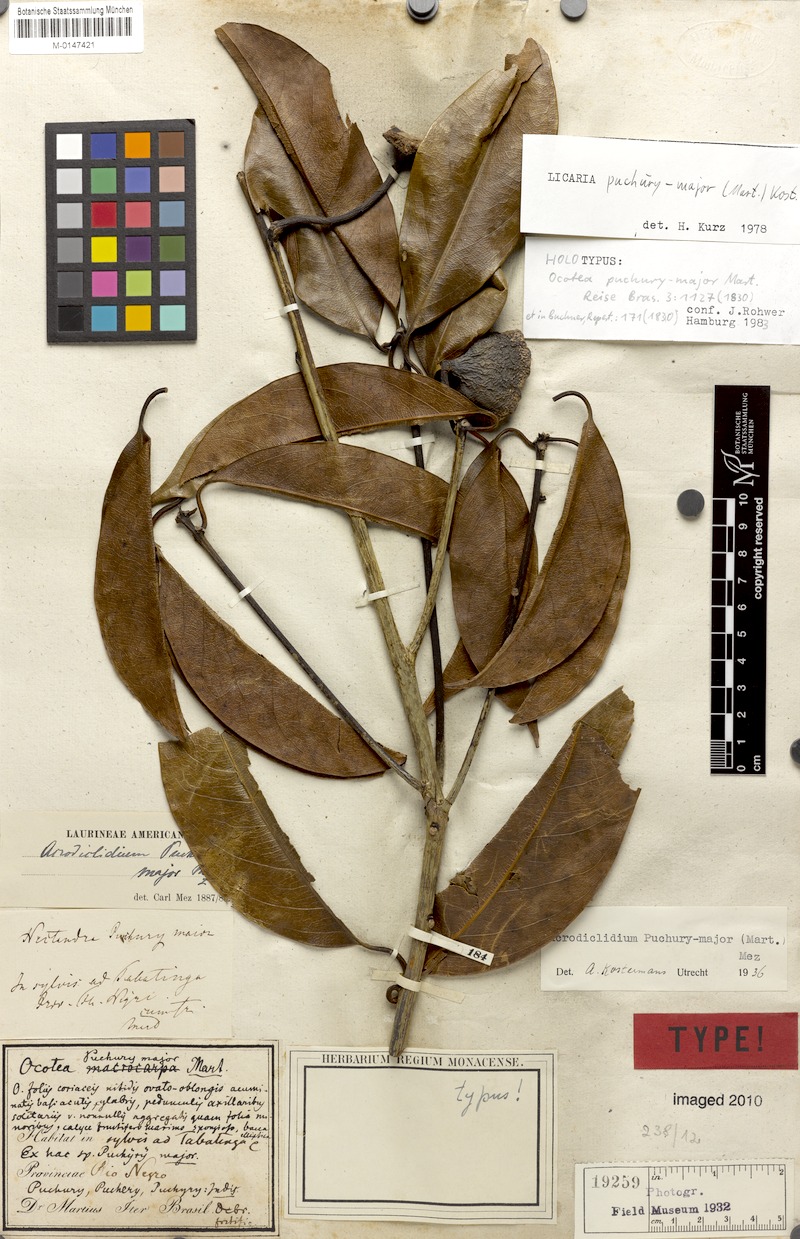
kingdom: Plantae
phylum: Tracheophyta
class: Magnoliopsida
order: Laurales
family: Lauraceae
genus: Aniba
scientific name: Aniba puchury-minor
